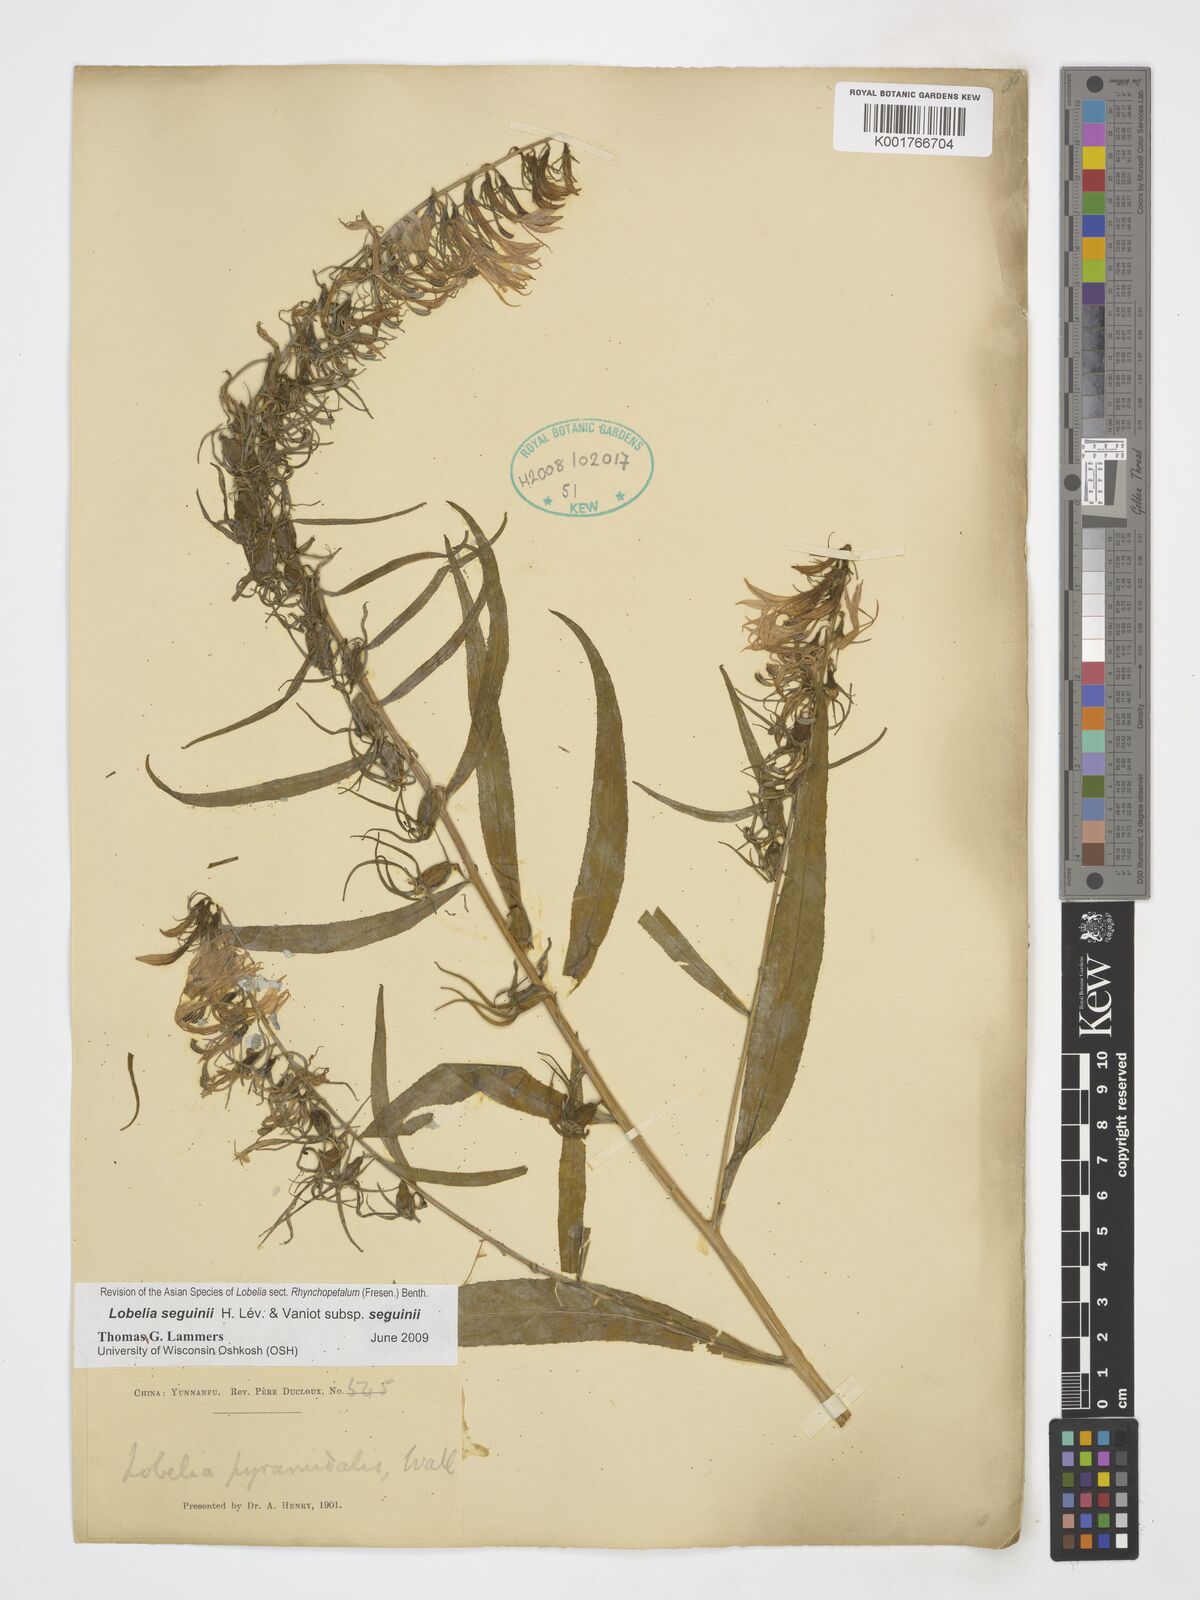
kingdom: Plantae
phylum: Tracheophyta
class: Magnoliopsida
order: Asterales
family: Campanulaceae
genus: Lobelia
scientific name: Lobelia seguinii
